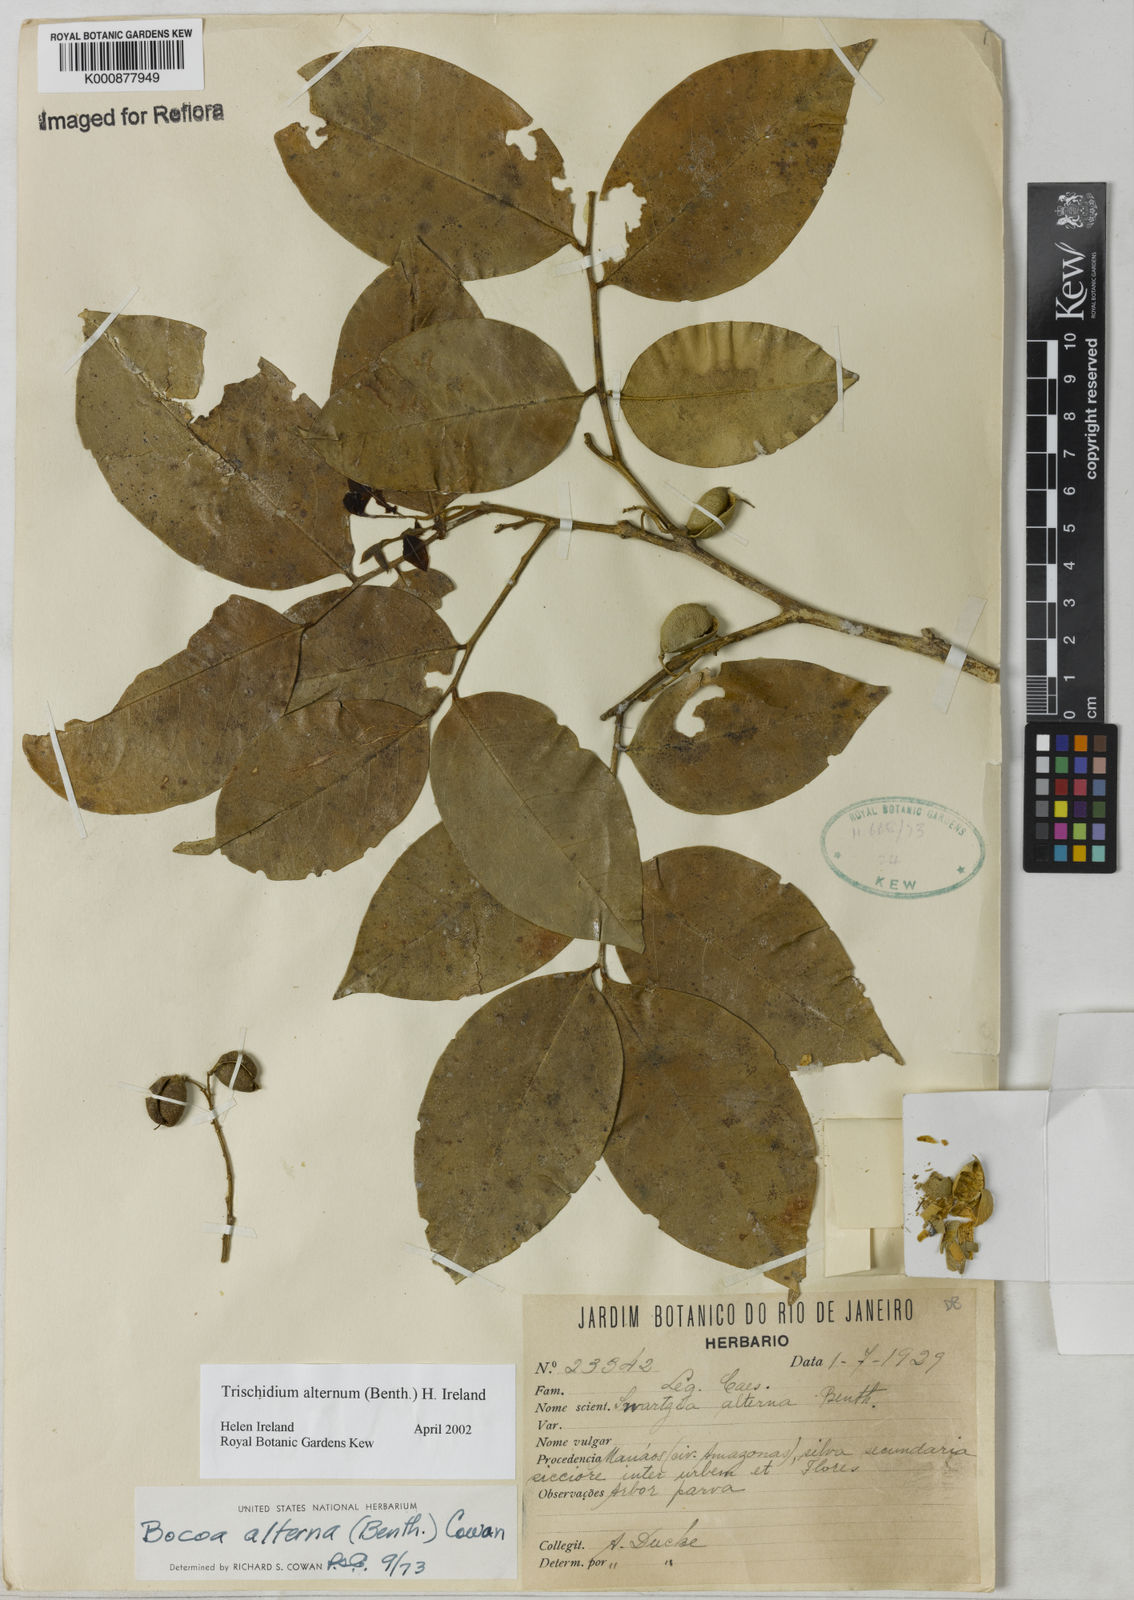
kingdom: Plantae
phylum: Tracheophyta
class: Magnoliopsida
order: Fabales
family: Fabaceae
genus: Trischidium
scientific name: Trischidium alternum
